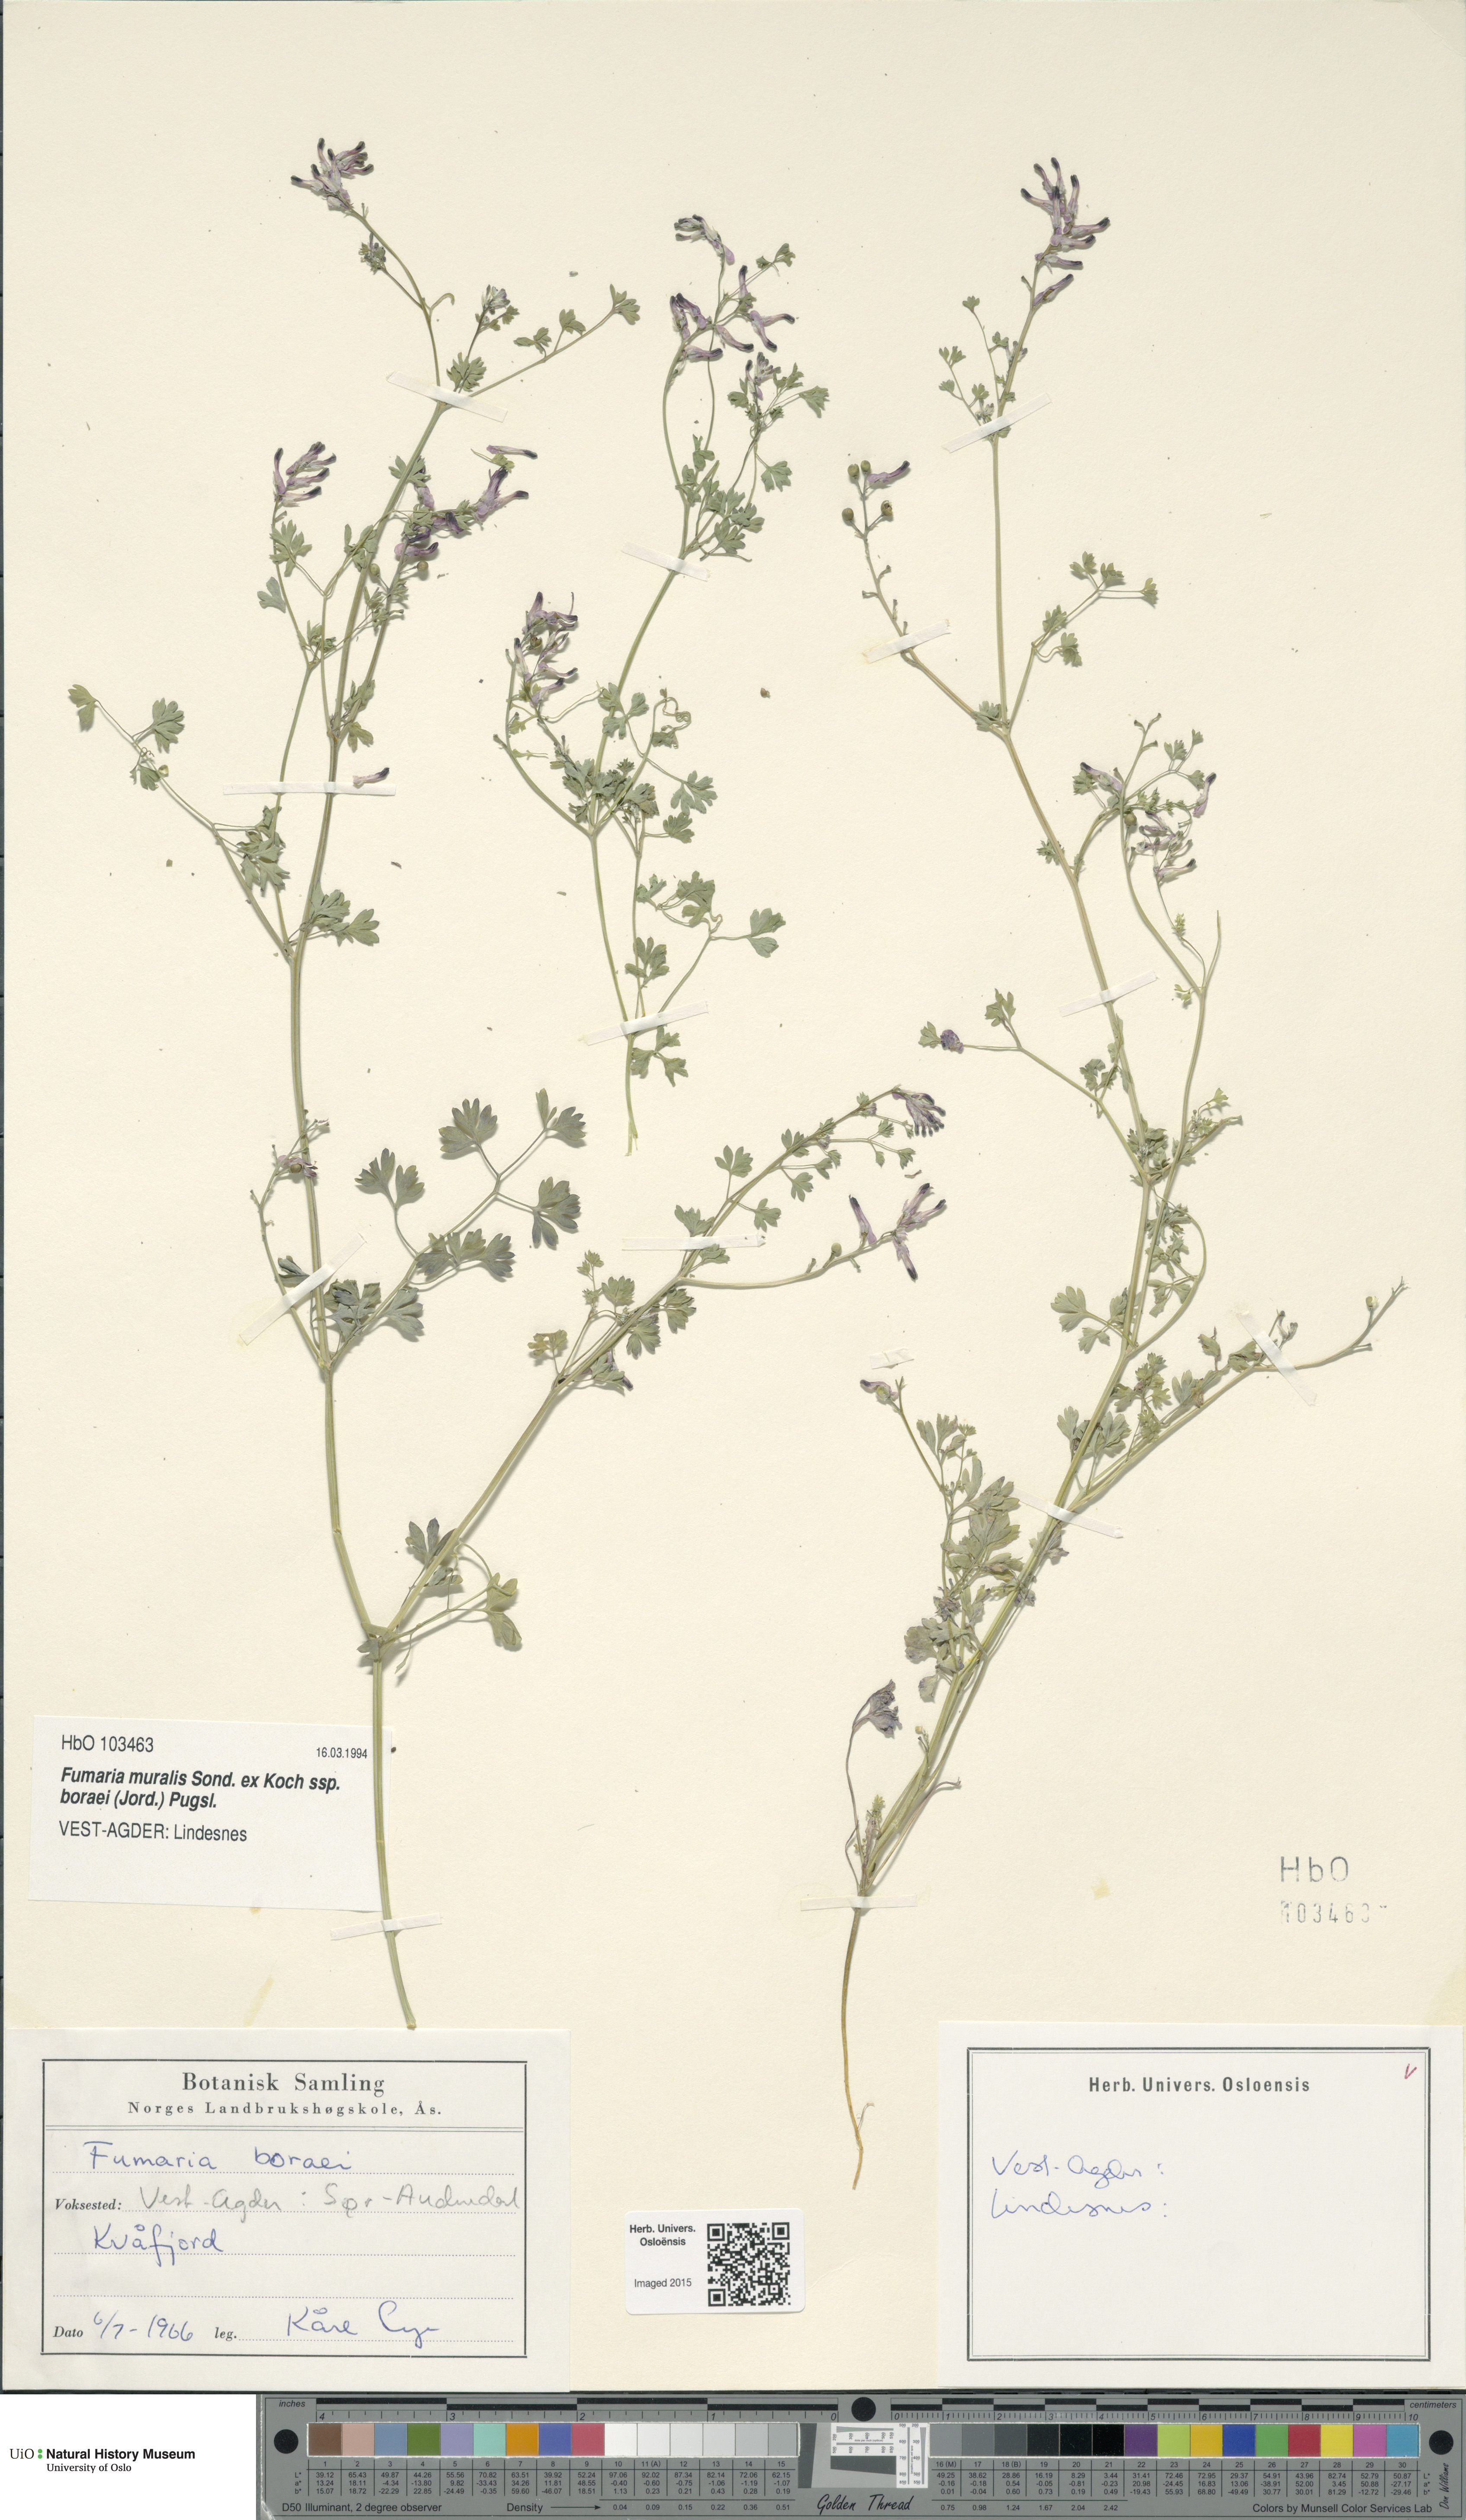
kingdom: Plantae
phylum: Tracheophyta
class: Magnoliopsida
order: Ranunculales
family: Papaveraceae
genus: Fumaria
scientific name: Fumaria muralis
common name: Common ramping-fumitory
